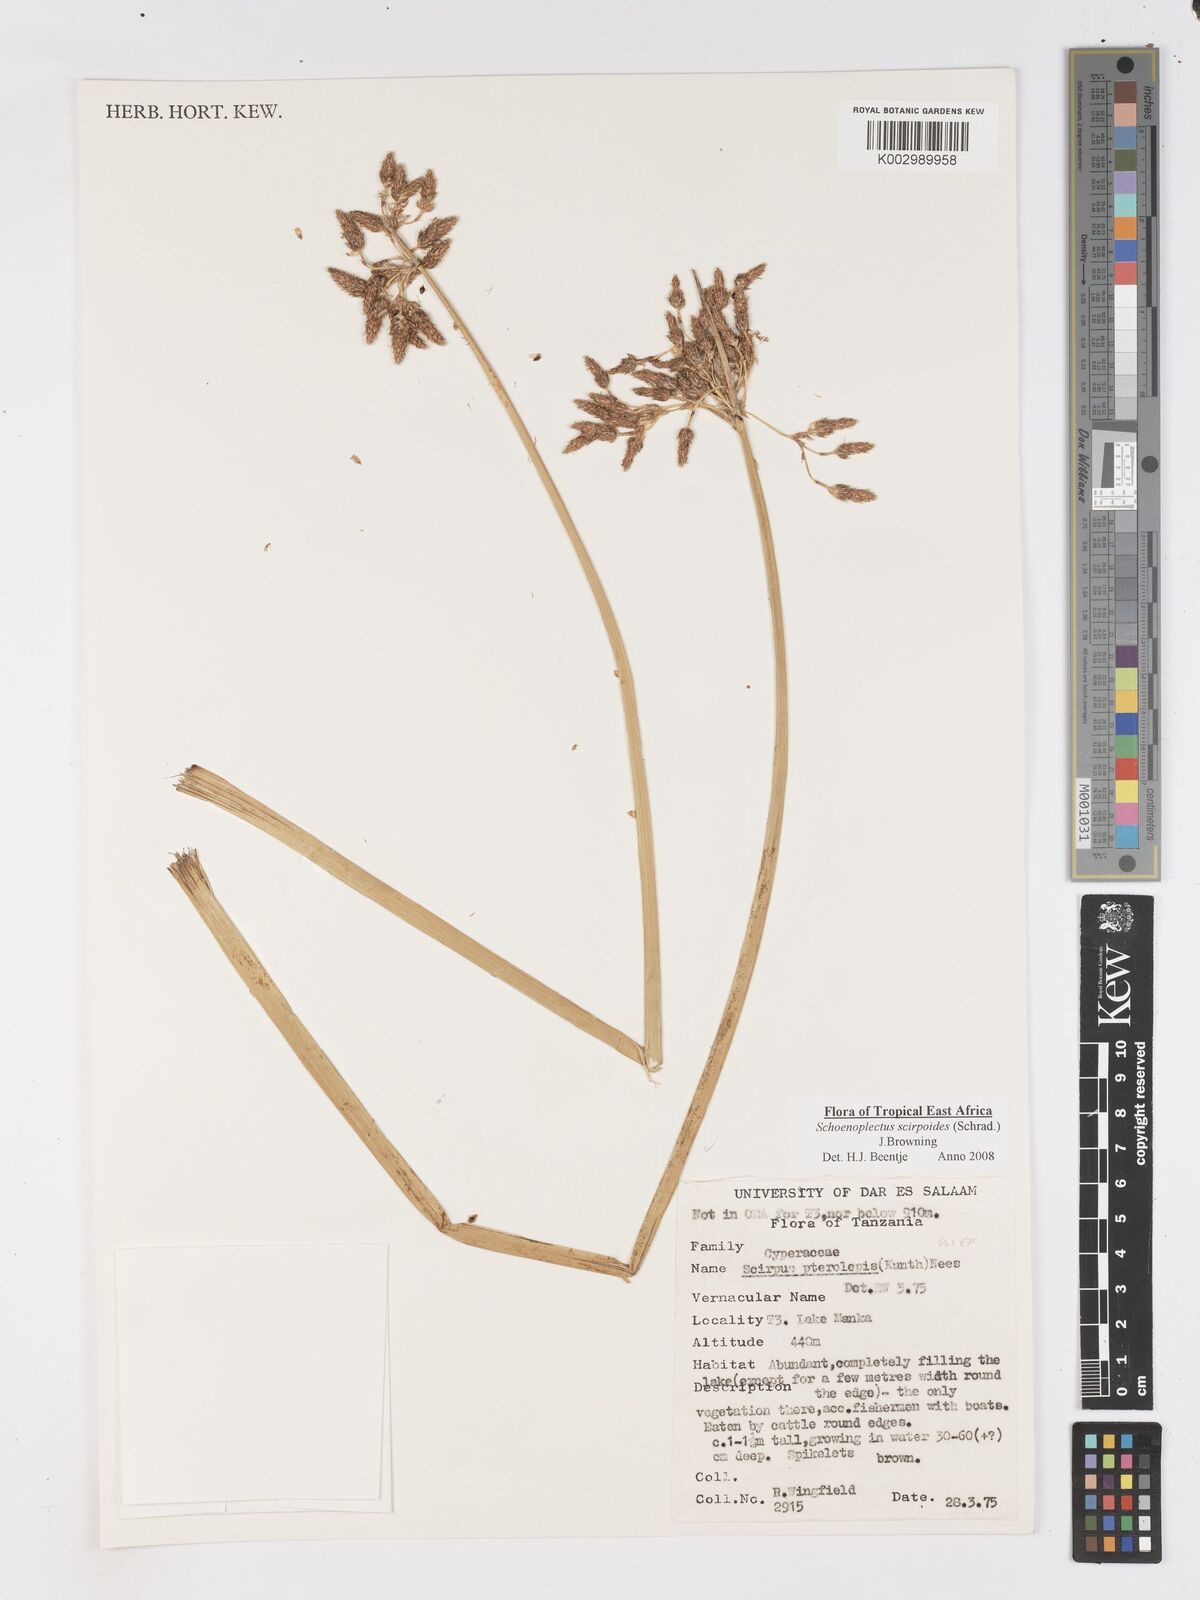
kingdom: Plantae
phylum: Tracheophyta
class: Liliopsida
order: Poales
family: Cyperaceae
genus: Schoenoplectus
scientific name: Schoenoplectus
